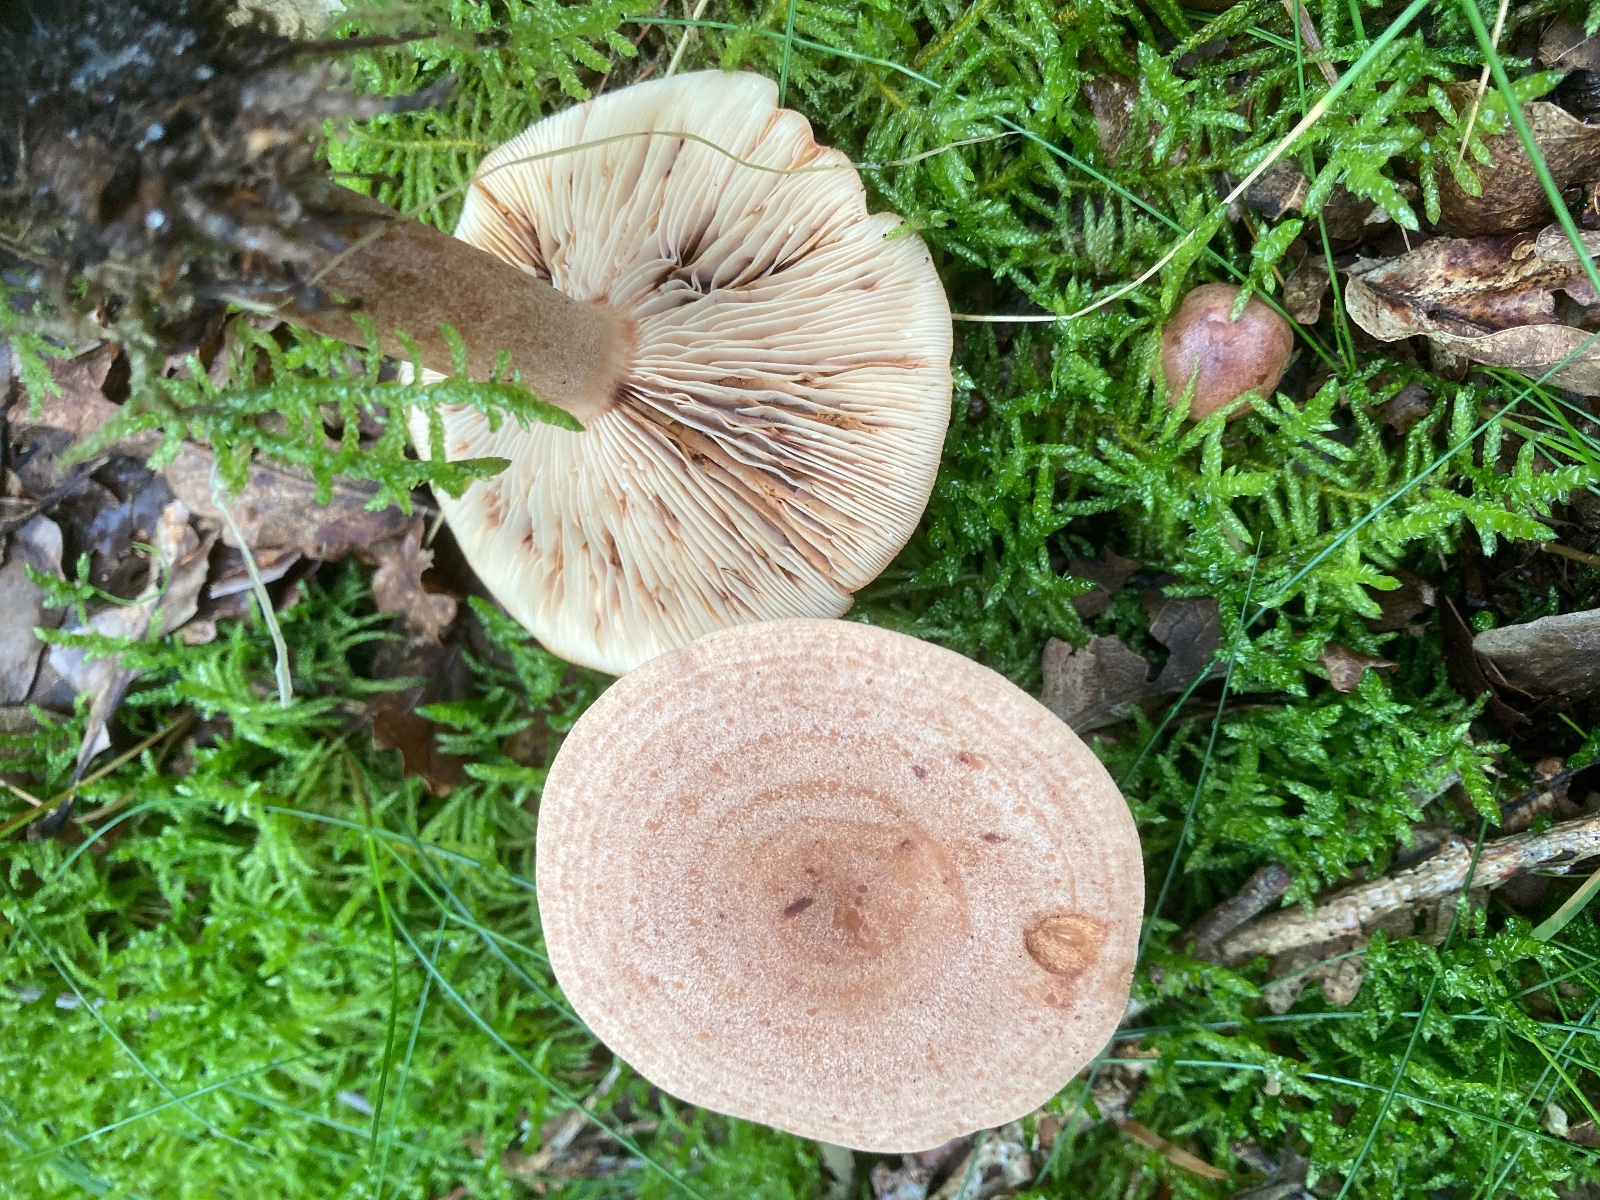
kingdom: Fungi
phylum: Basidiomycota
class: Agaricomycetes
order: Russulales
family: Russulaceae
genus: Lactarius
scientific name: Lactarius quietus
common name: ege-mælkehat
